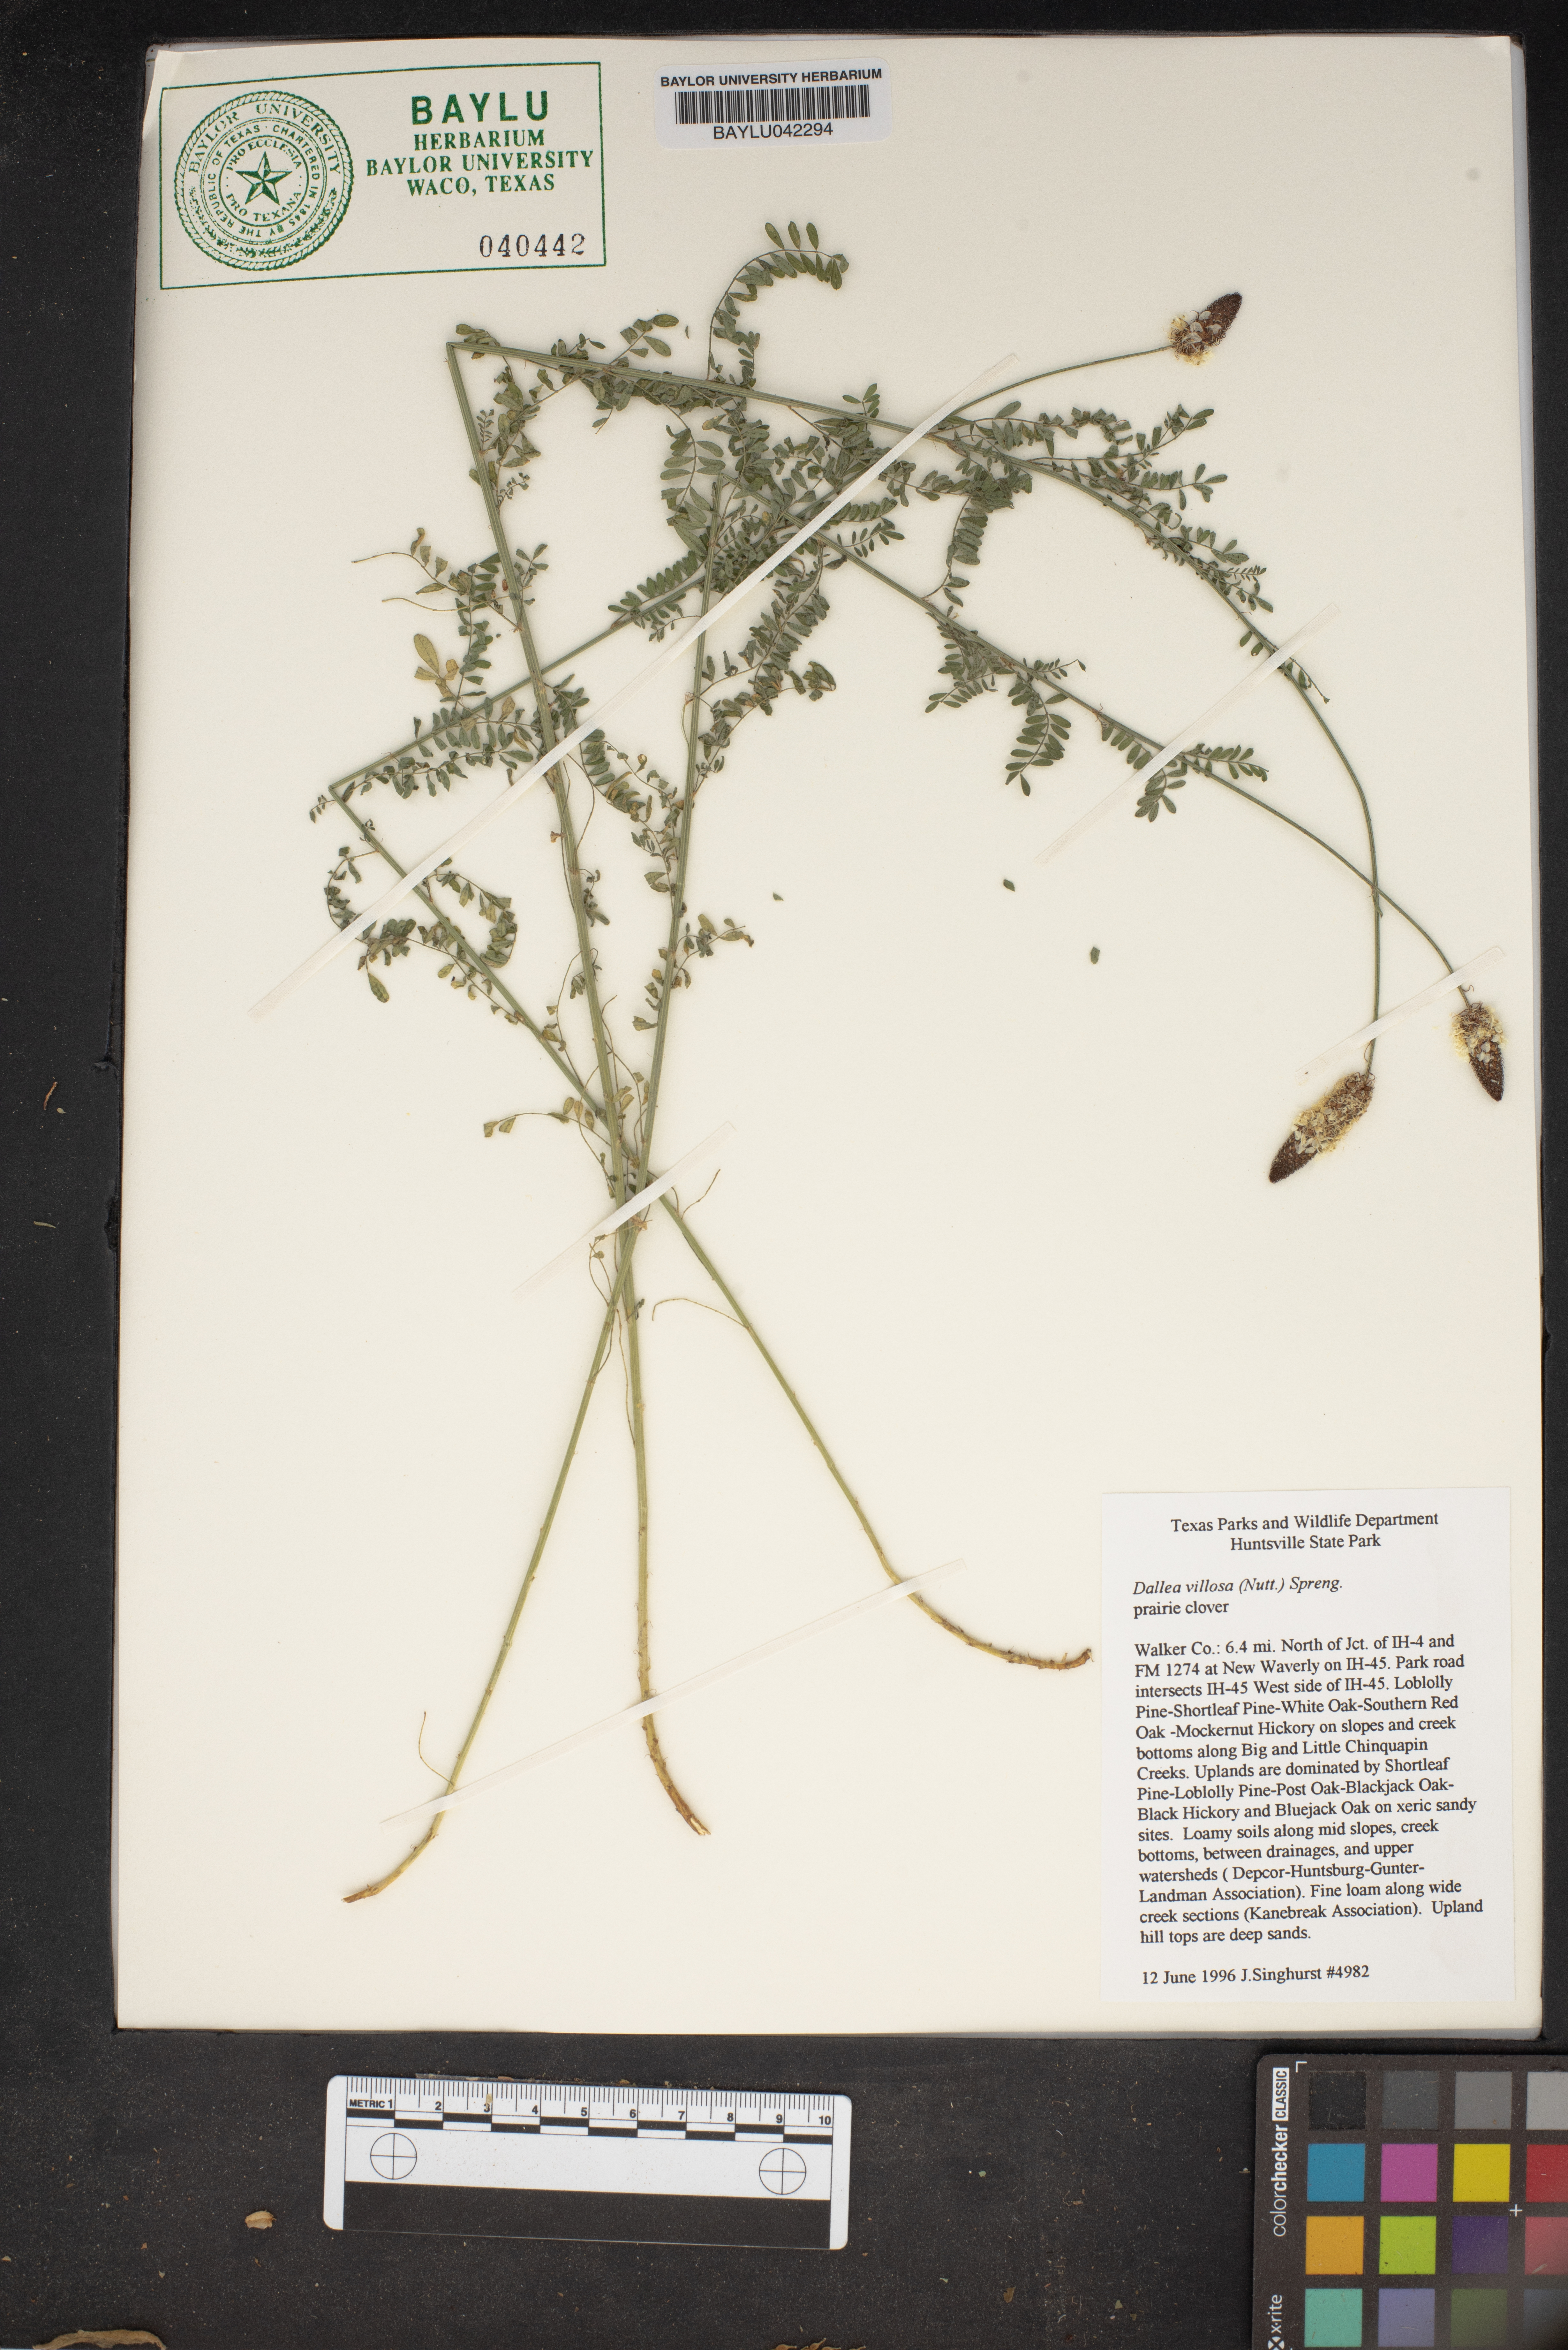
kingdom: Plantae
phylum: Tracheophyta
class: Magnoliopsida
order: Fabales
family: Fabaceae
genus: Dalea
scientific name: Dalea villosa
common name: Silky prairie-clover
